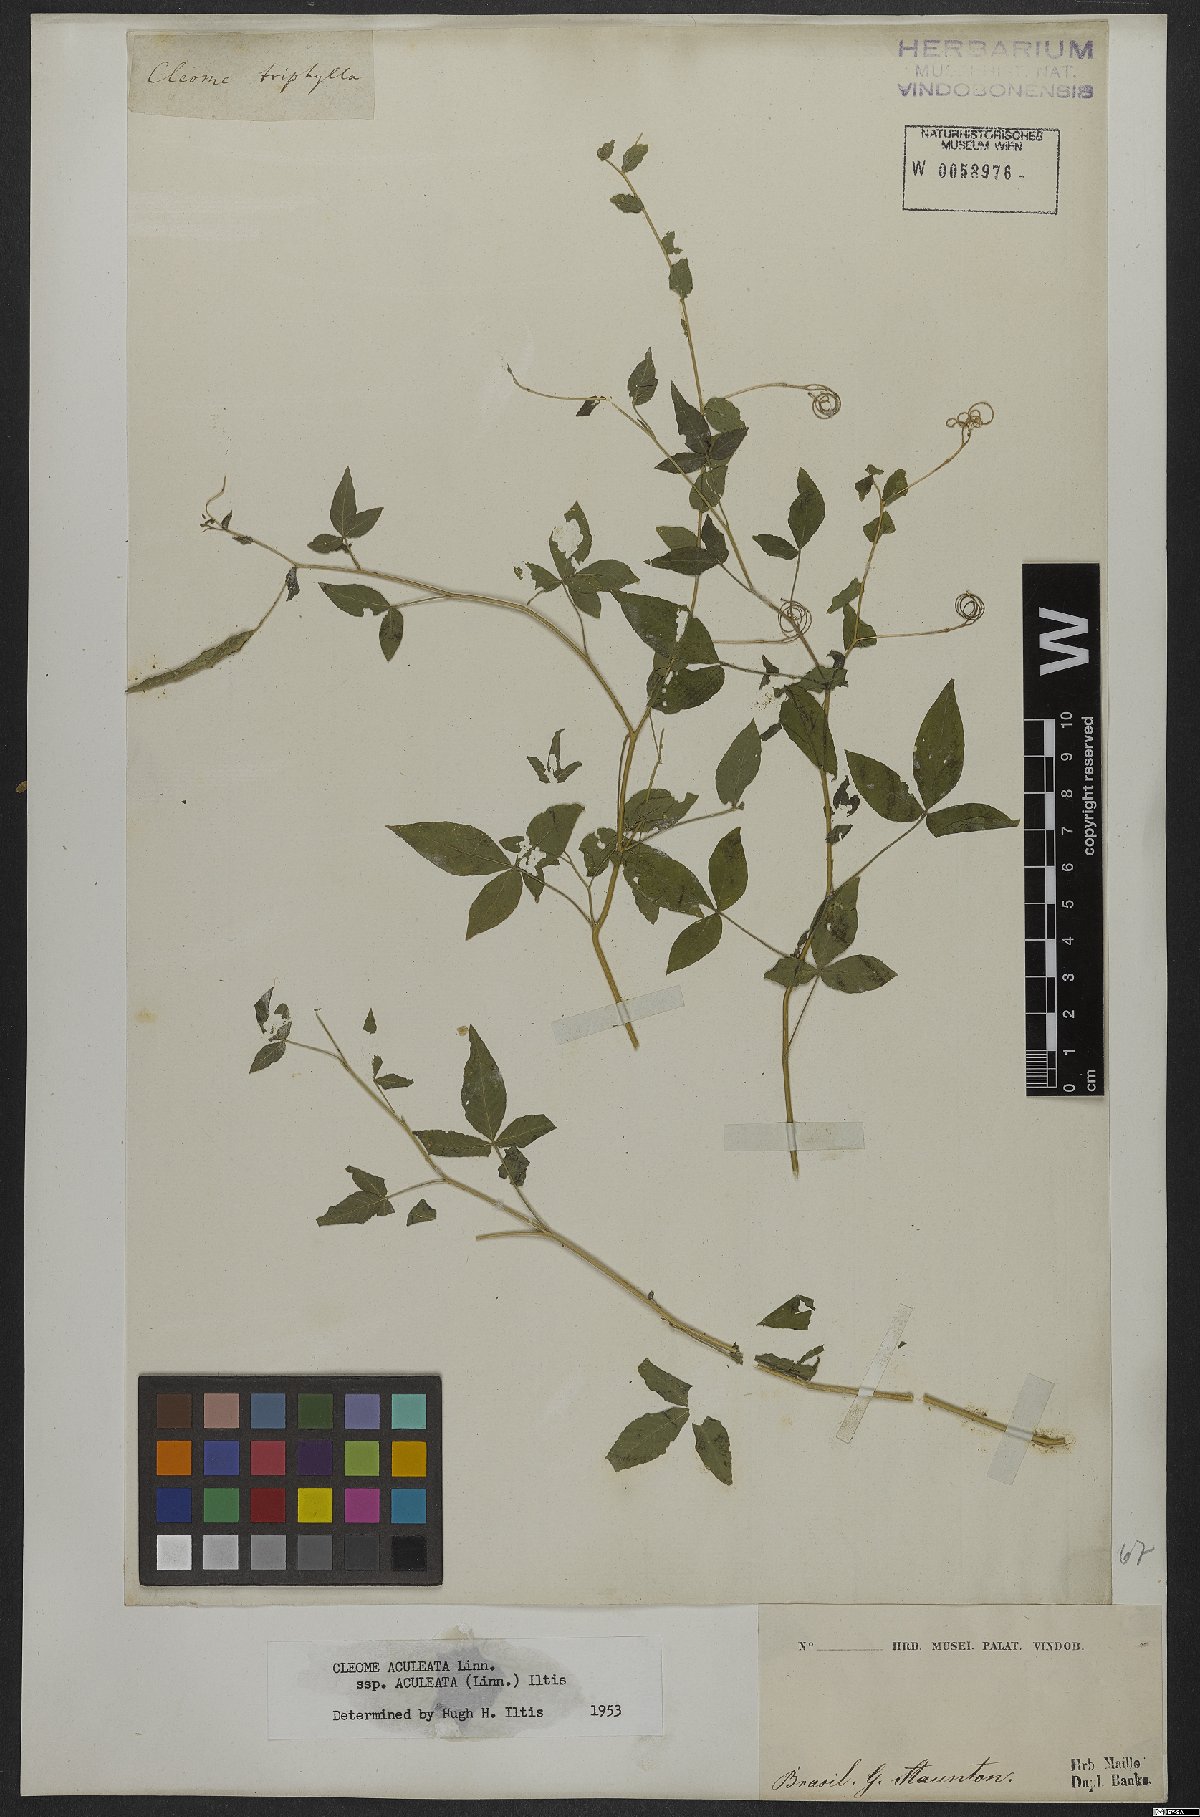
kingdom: Plantae
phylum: Tracheophyta
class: Magnoliopsida
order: Brassicales
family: Cleomaceae
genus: Tarenaya
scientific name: Tarenaya aculeata
